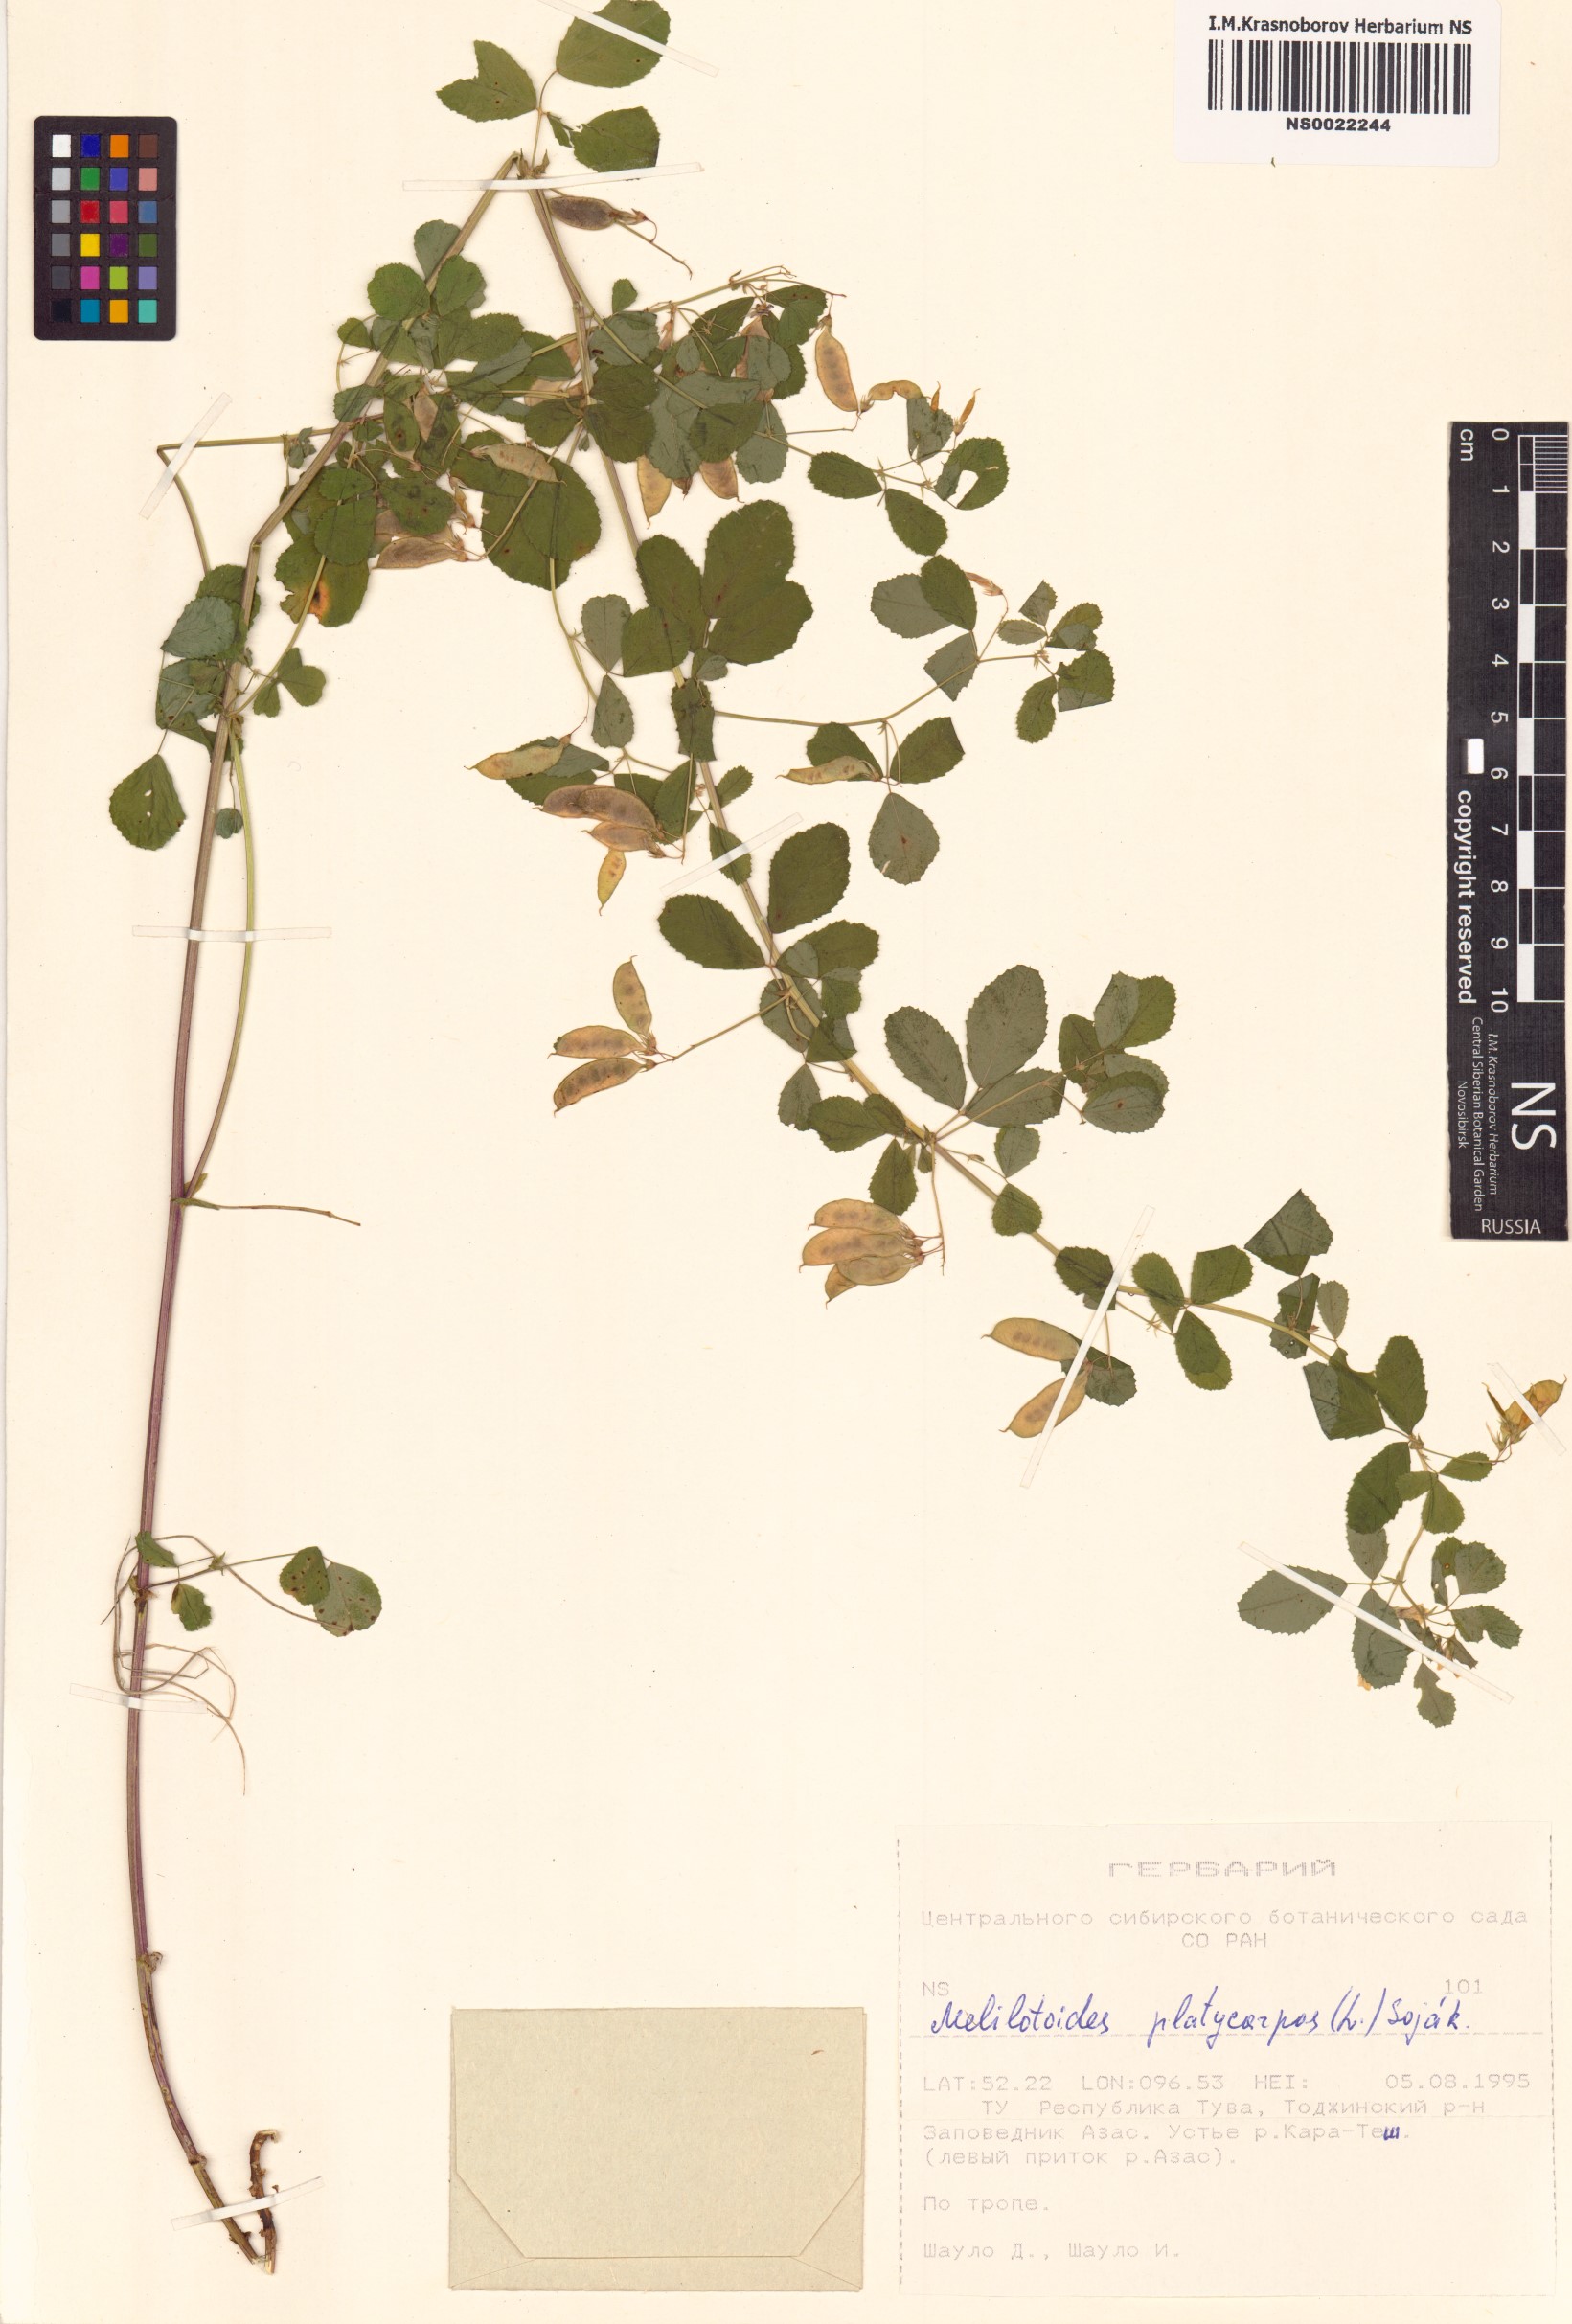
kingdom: Plantae
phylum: Tracheophyta
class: Magnoliopsida
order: Fabales
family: Fabaceae
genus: Medicago
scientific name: Medicago platycarpos
